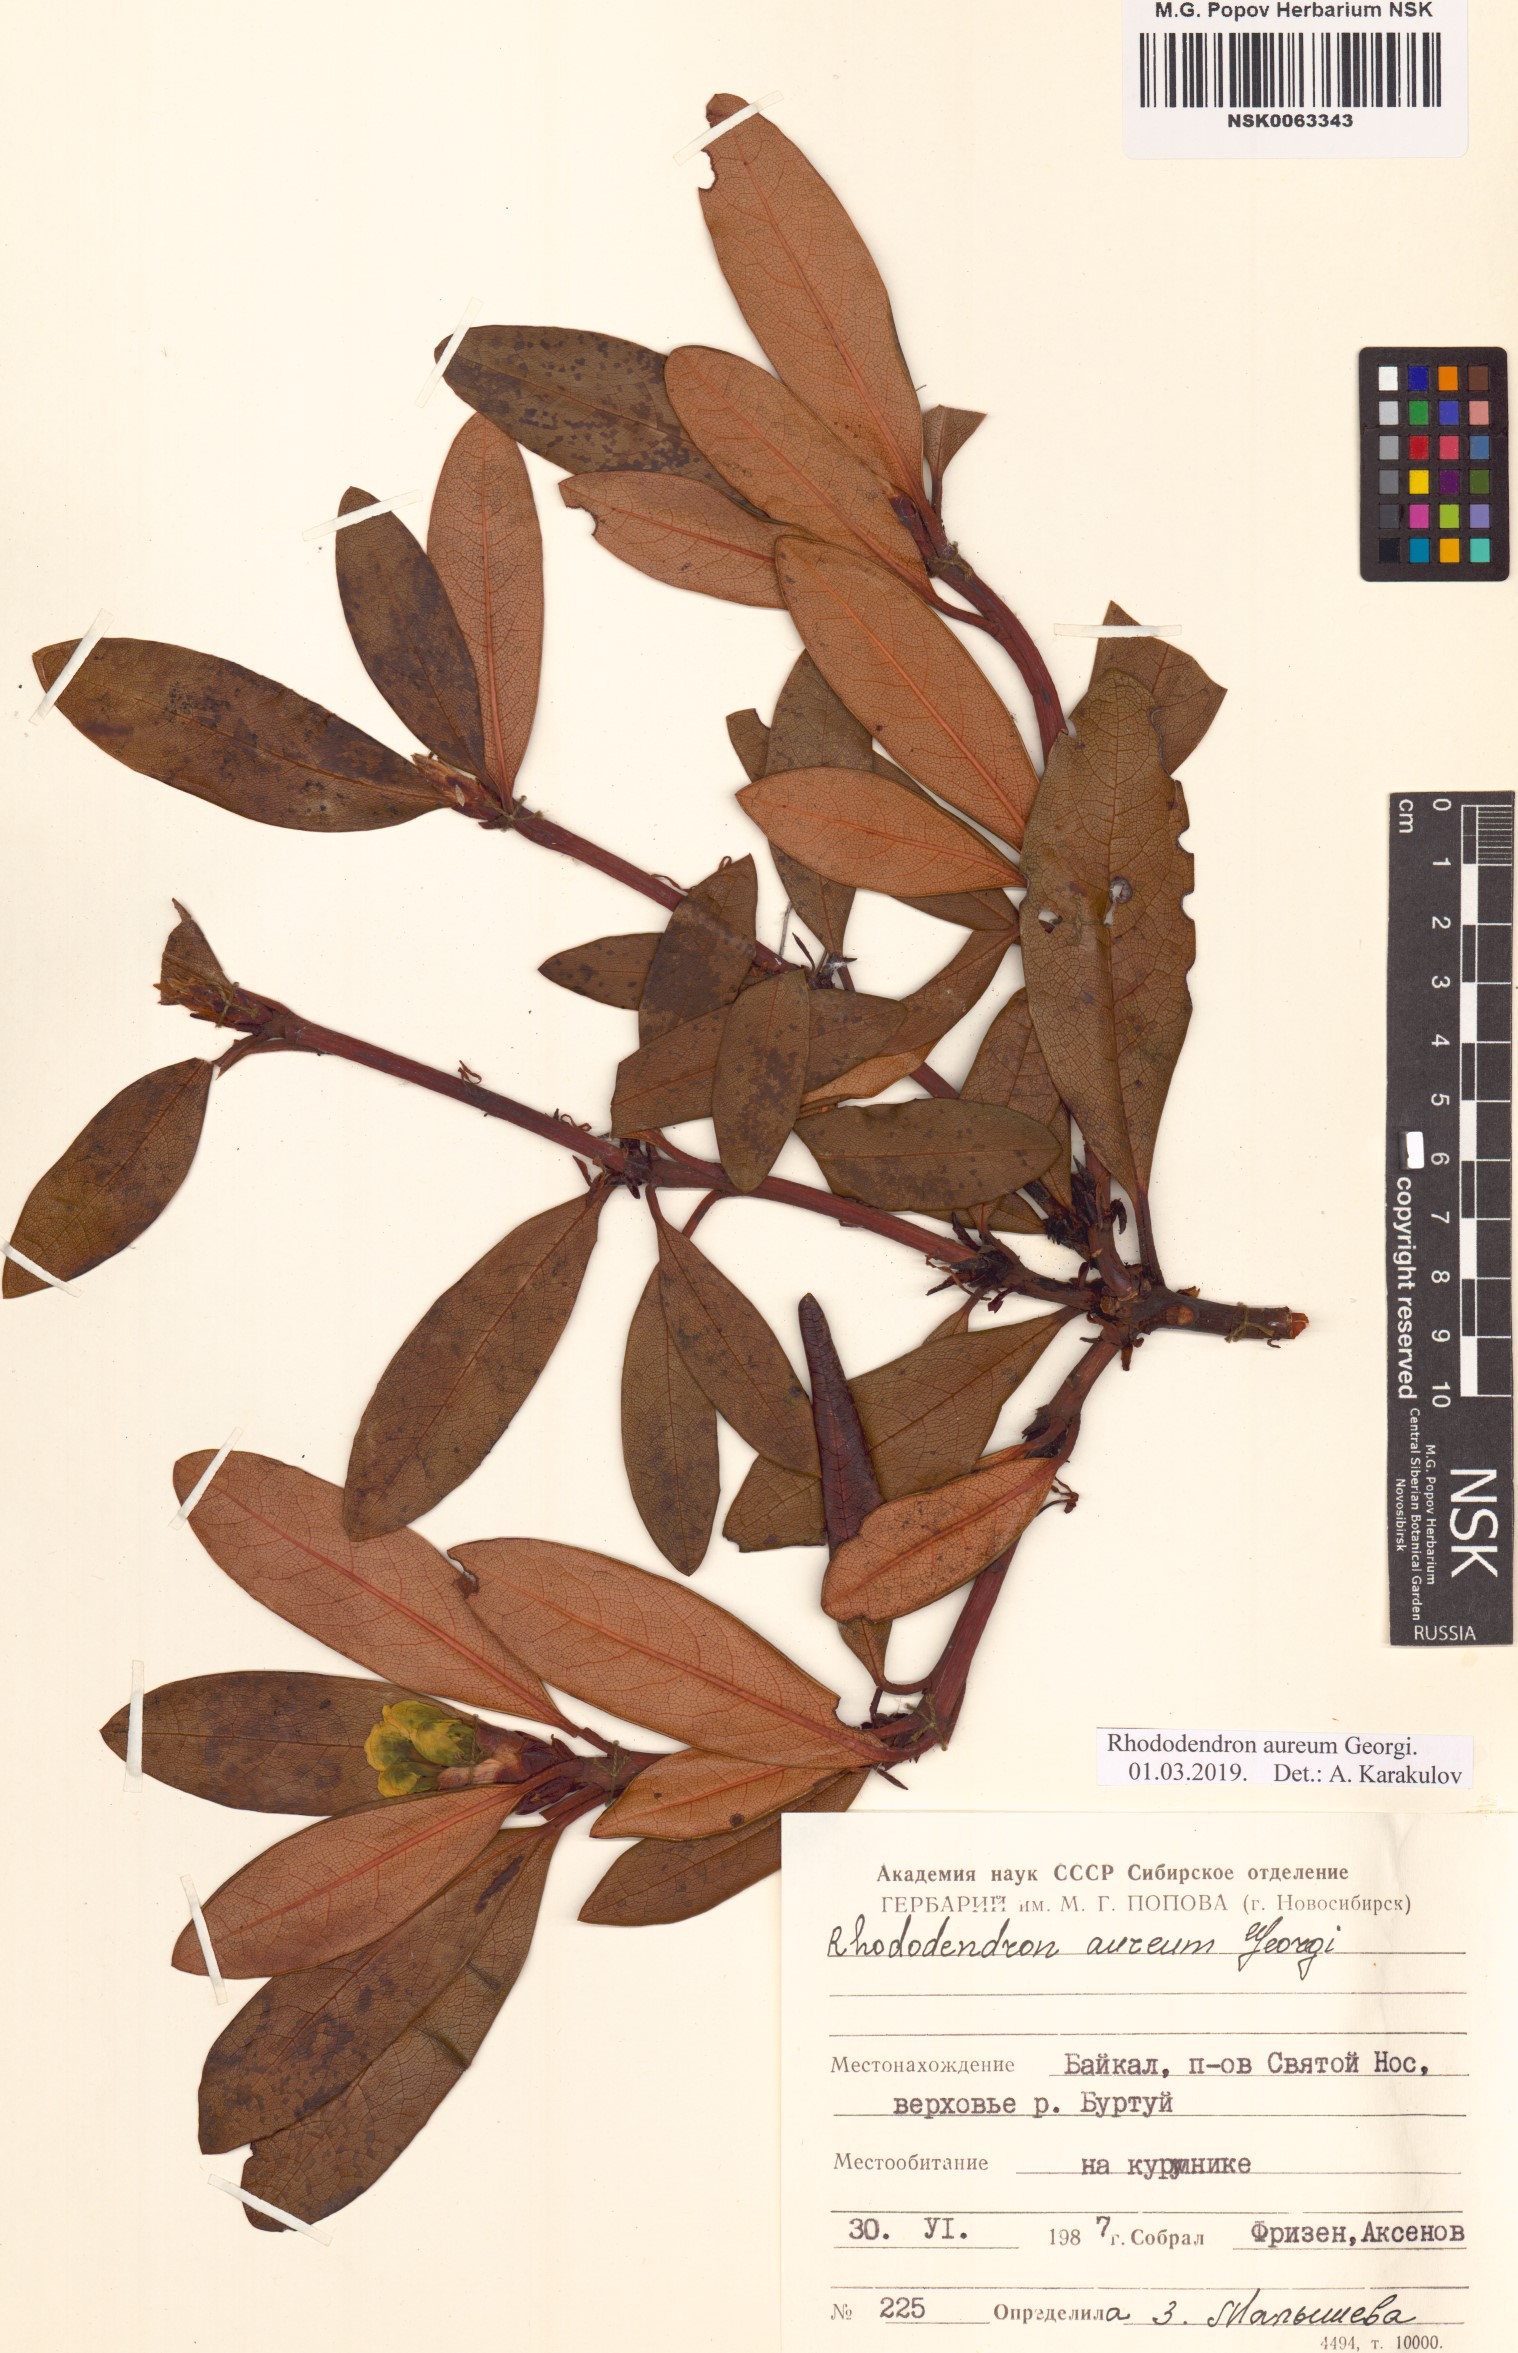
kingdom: Plantae
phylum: Tracheophyta
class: Magnoliopsida
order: Ericales
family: Ericaceae
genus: Rhododendron
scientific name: Rhododendron aureum
